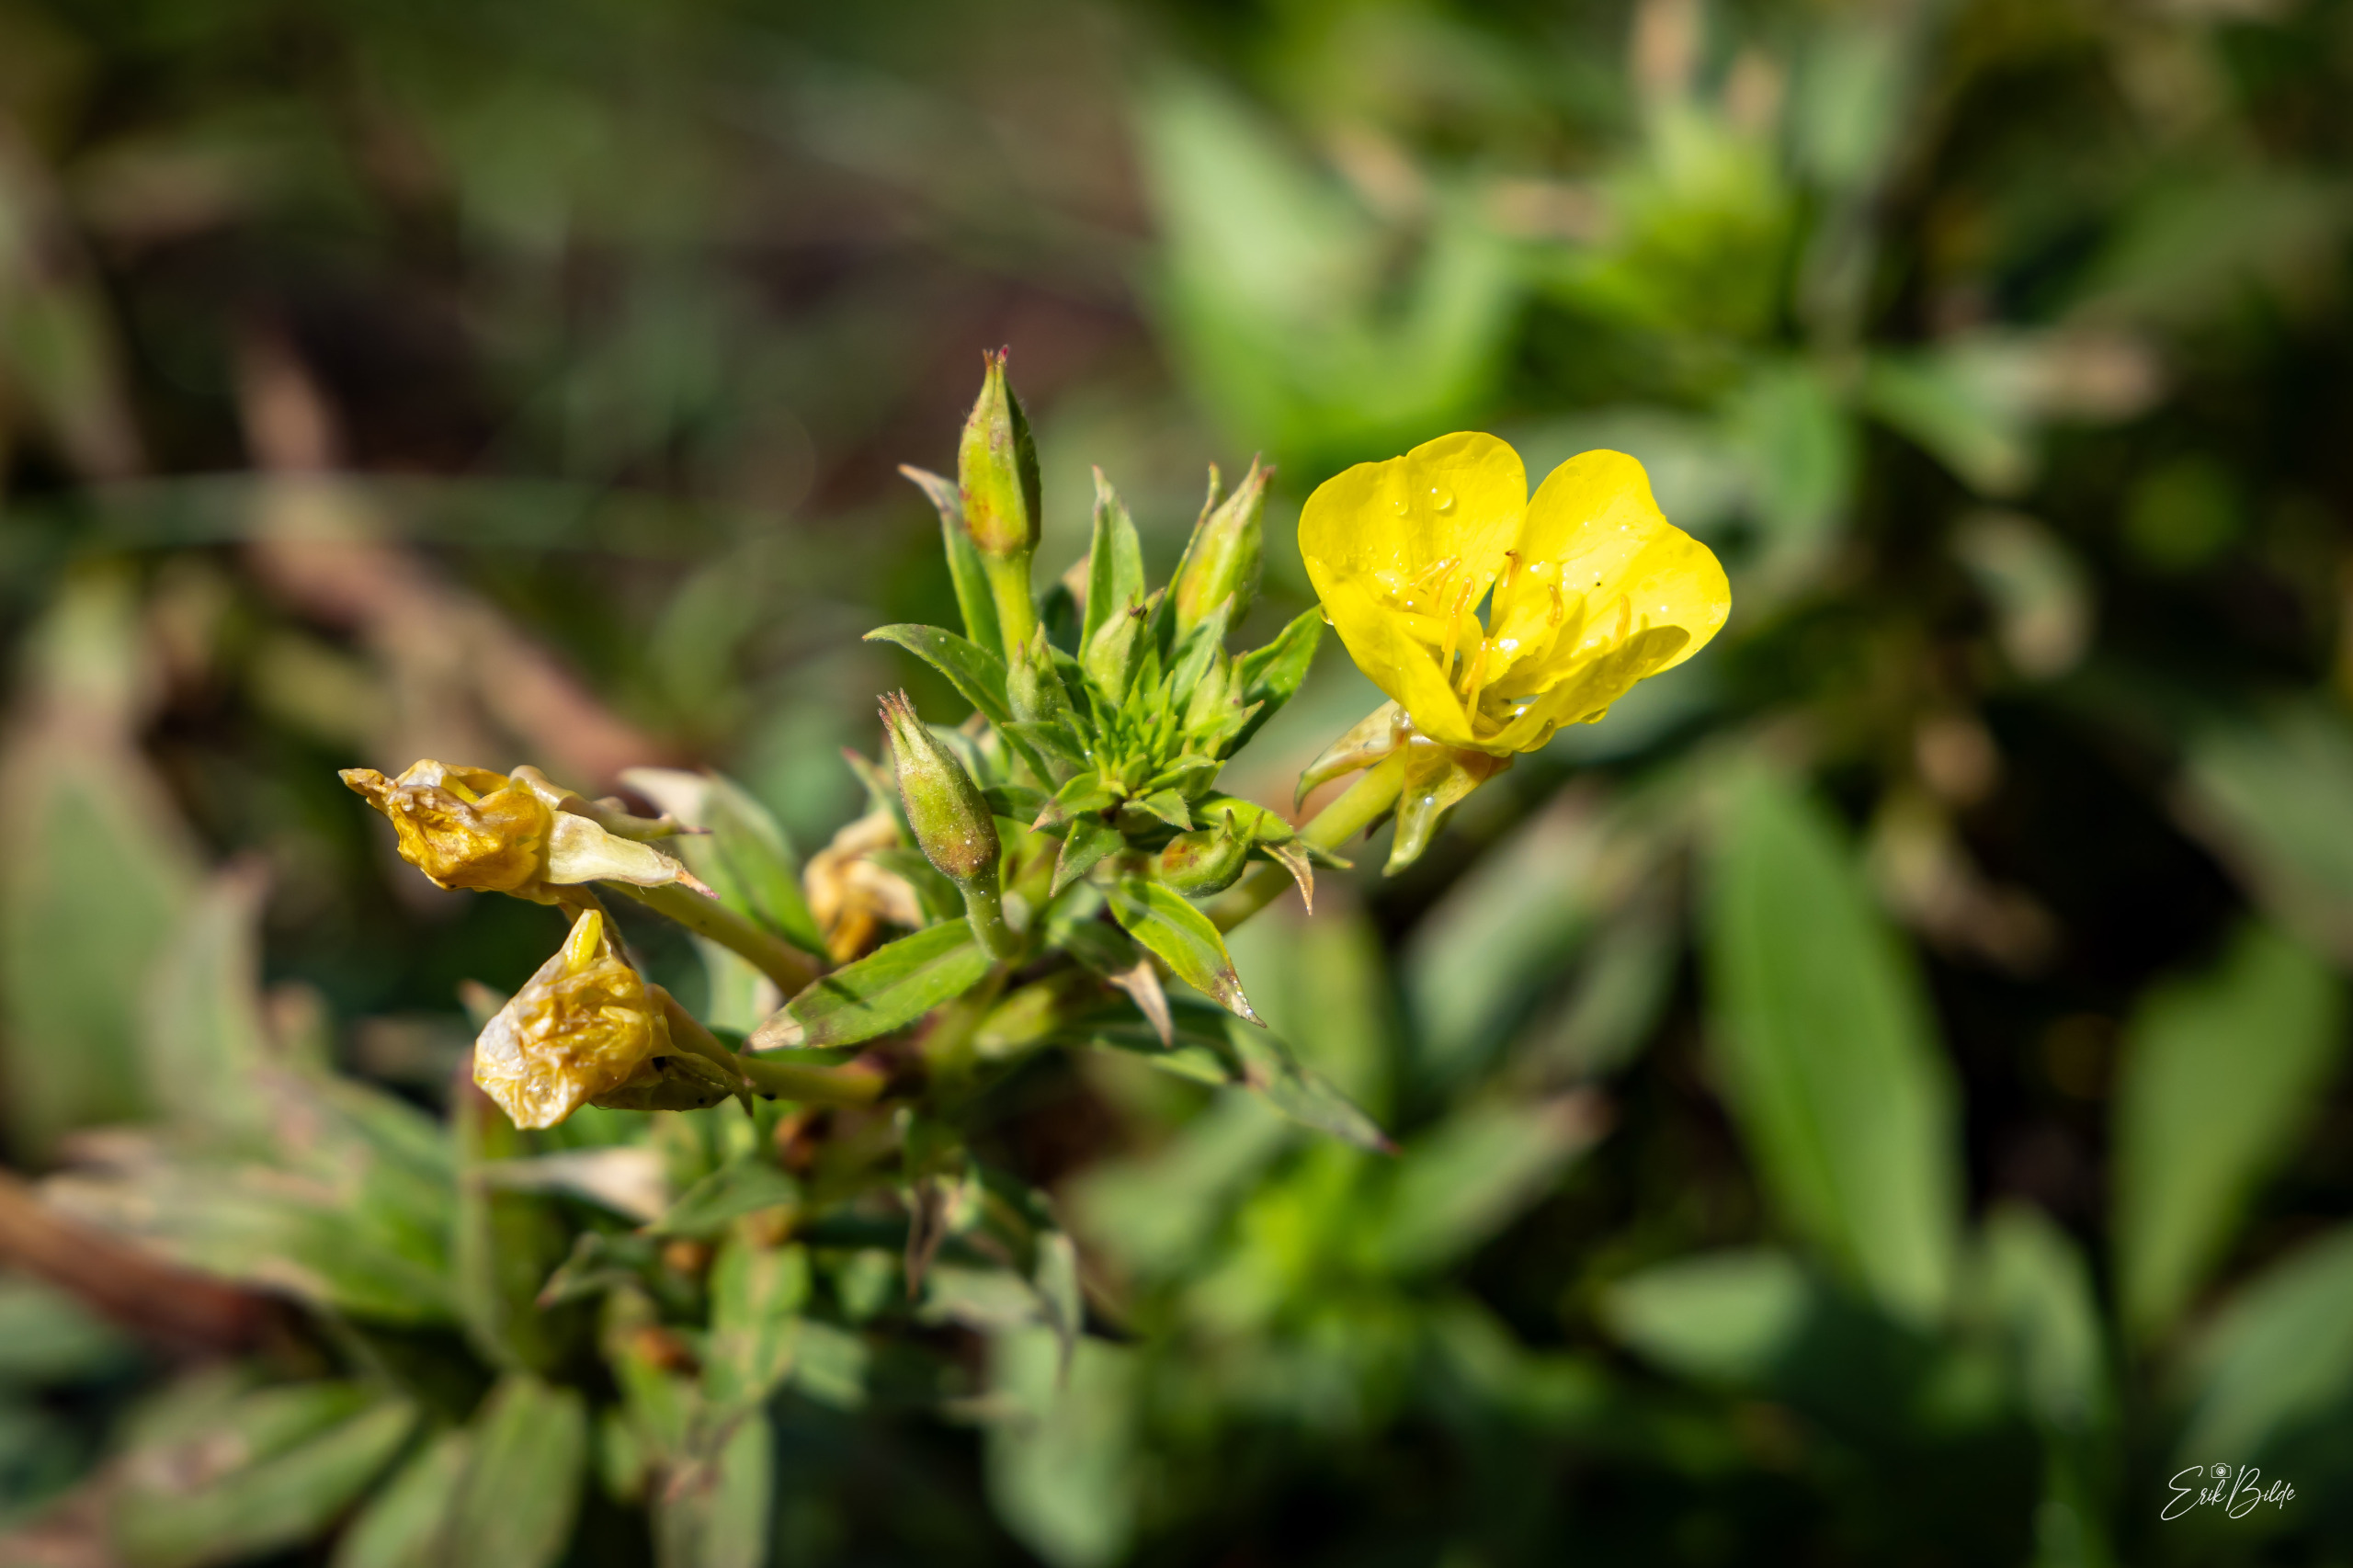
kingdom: Plantae
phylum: Tracheophyta
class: Magnoliopsida
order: Myrtales
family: Onagraceae
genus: Oenothera
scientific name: Oenothera ammophila
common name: Klit-natlys
